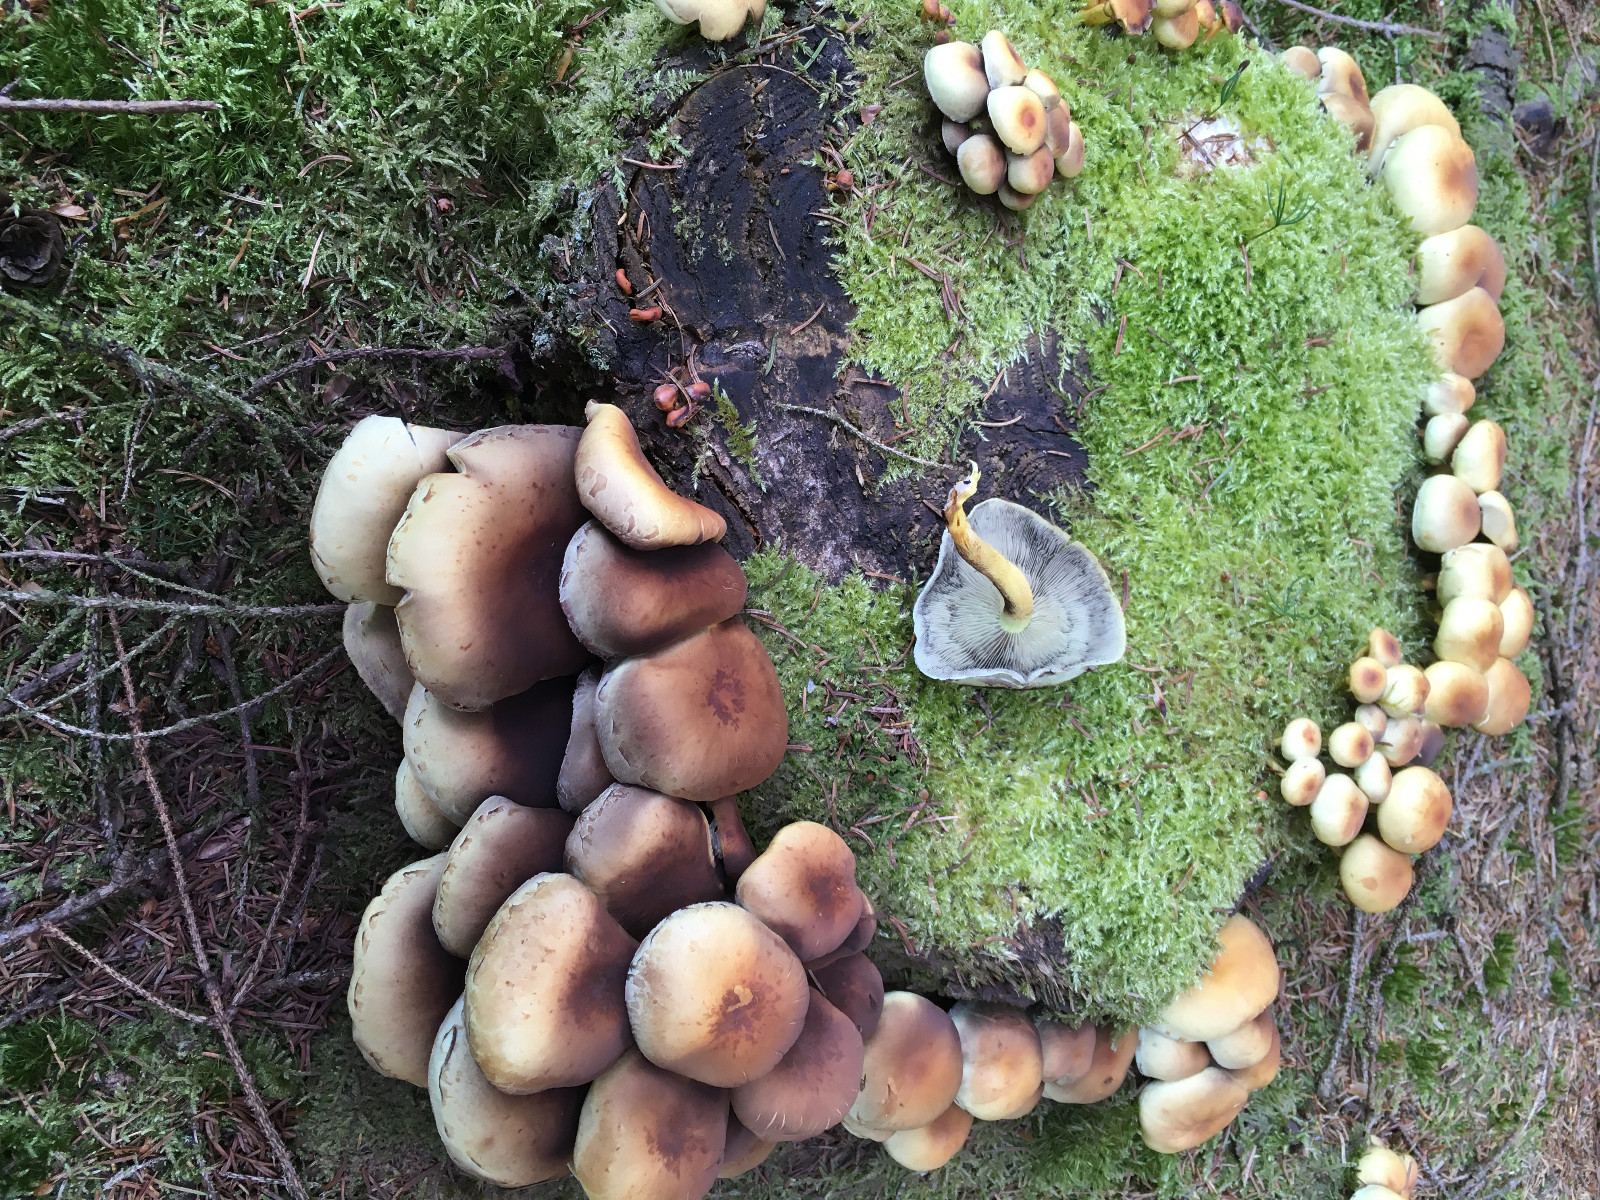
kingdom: Fungi
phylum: Basidiomycota
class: Agaricomycetes
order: Agaricales
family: Strophariaceae
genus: Hypholoma
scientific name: Hypholoma capnoides
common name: gran-svovlhat
